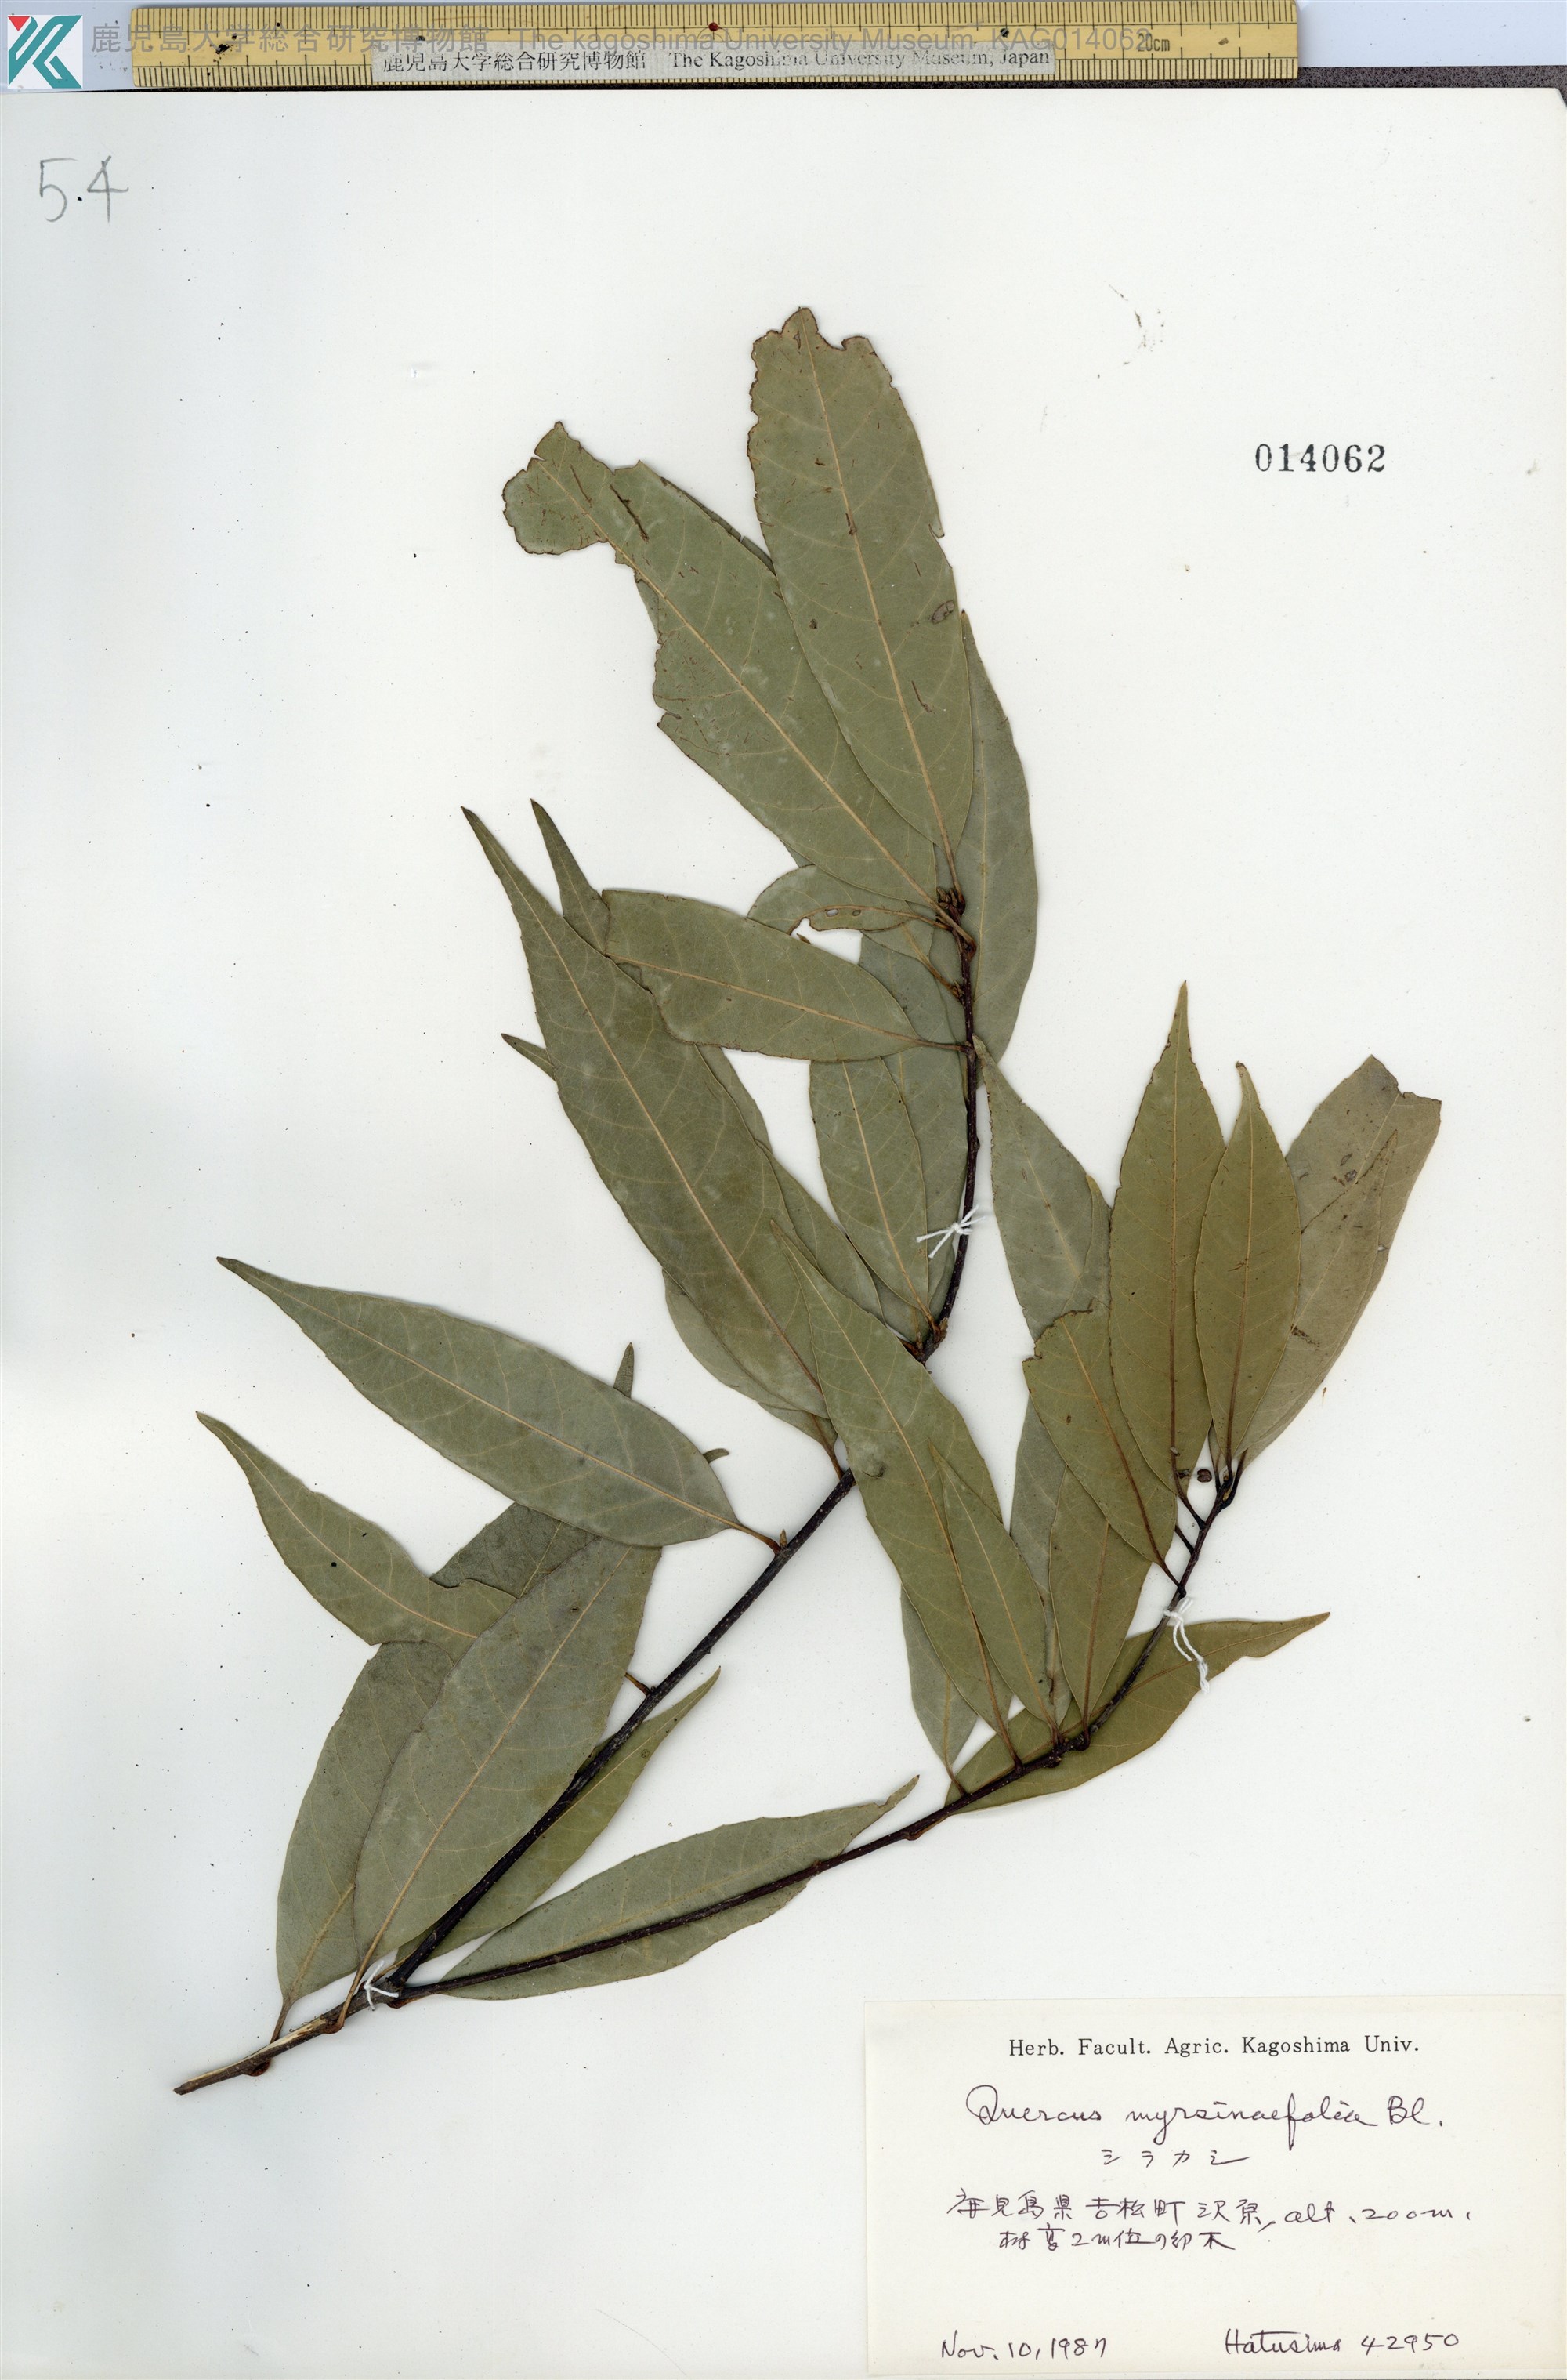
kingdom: Plantae
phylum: Tracheophyta
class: Magnoliopsida
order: Fagales
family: Fagaceae
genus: Quercus
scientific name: Quercus myrsinaefolia
